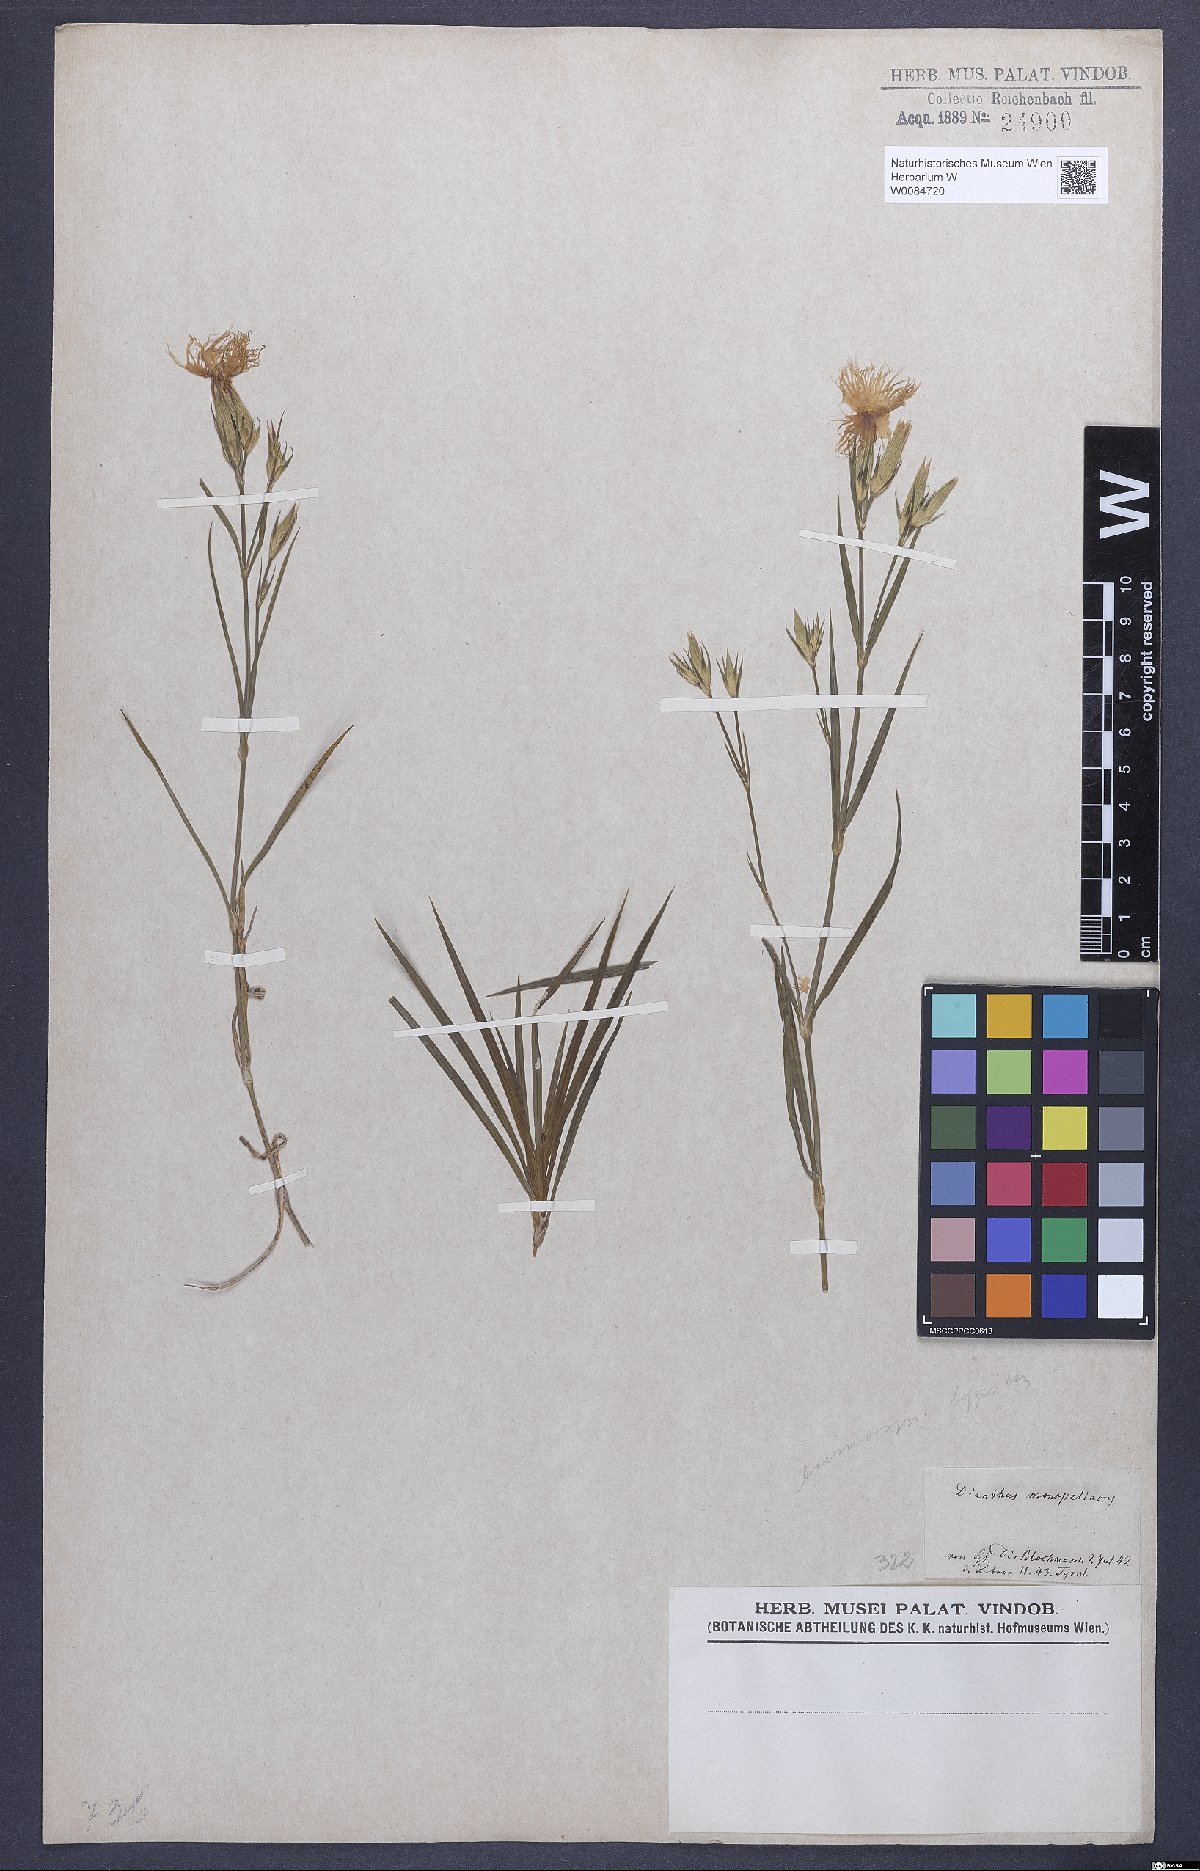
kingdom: Plantae
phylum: Tracheophyta
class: Magnoliopsida
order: Caryophyllales
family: Caryophyllaceae
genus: Dianthus
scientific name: Dianthus hyssopifolius
